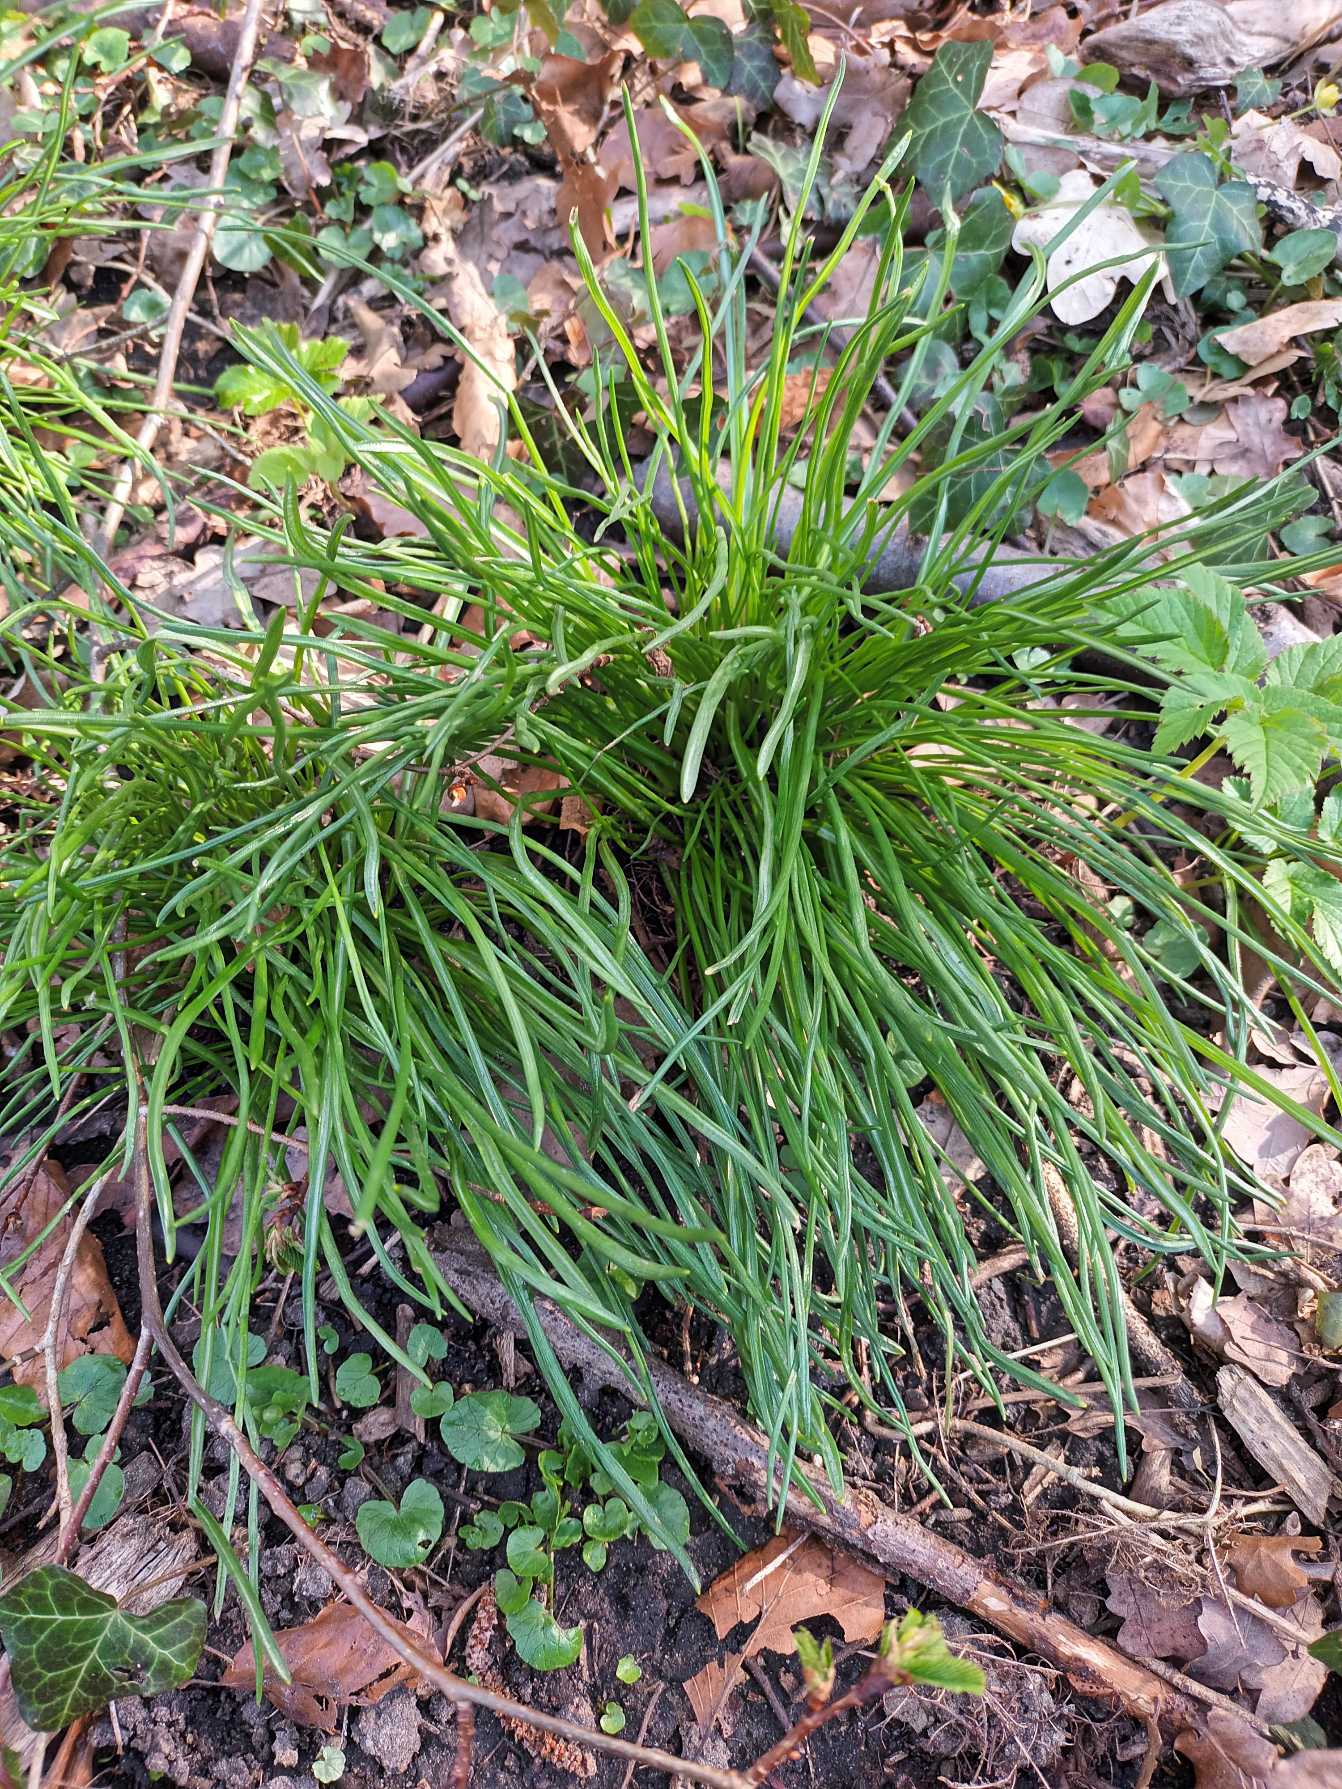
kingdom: Plantae
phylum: Tracheophyta
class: Liliopsida
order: Asparagales
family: Asparagaceae
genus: Ornithogalum
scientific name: Ornithogalum umbellatum
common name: Kost-fuglemælk
